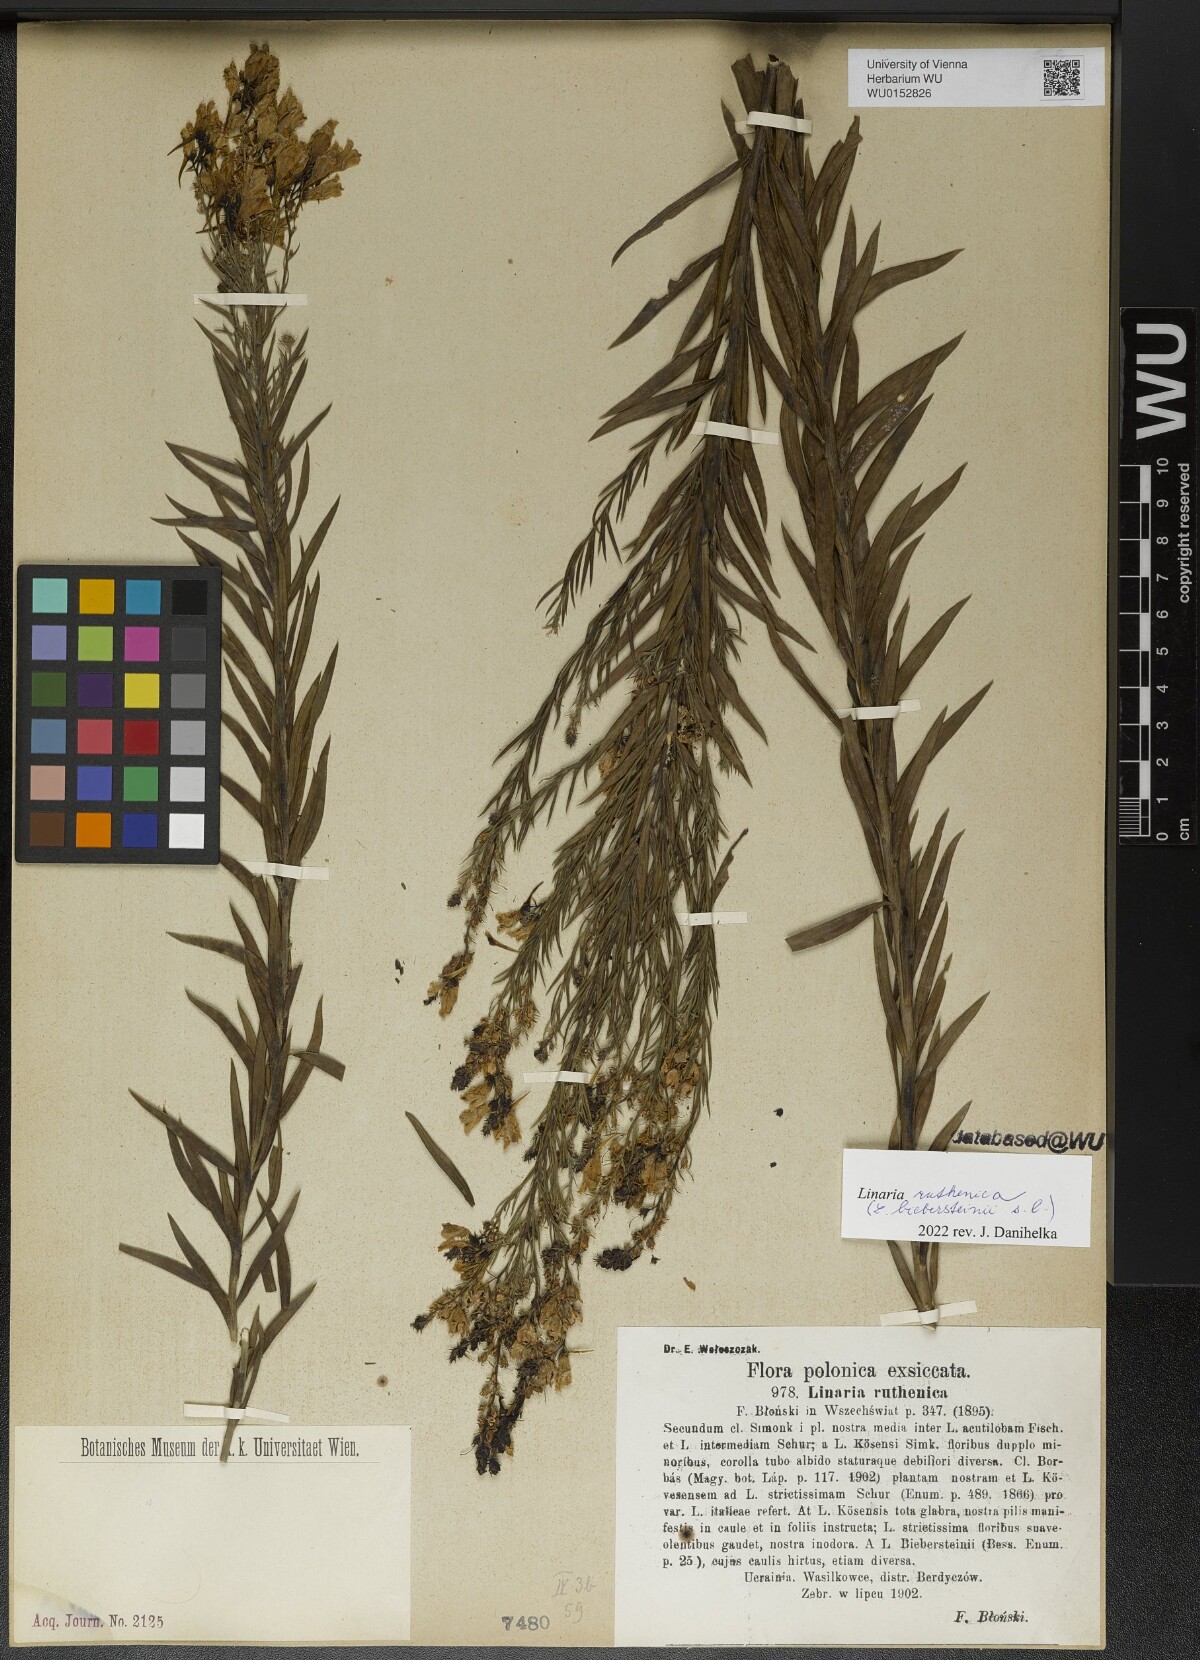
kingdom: Plantae
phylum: Tracheophyta
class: Magnoliopsida
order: Lamiales
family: Plantaginaceae
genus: Linaria
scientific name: Linaria biebersteinii
